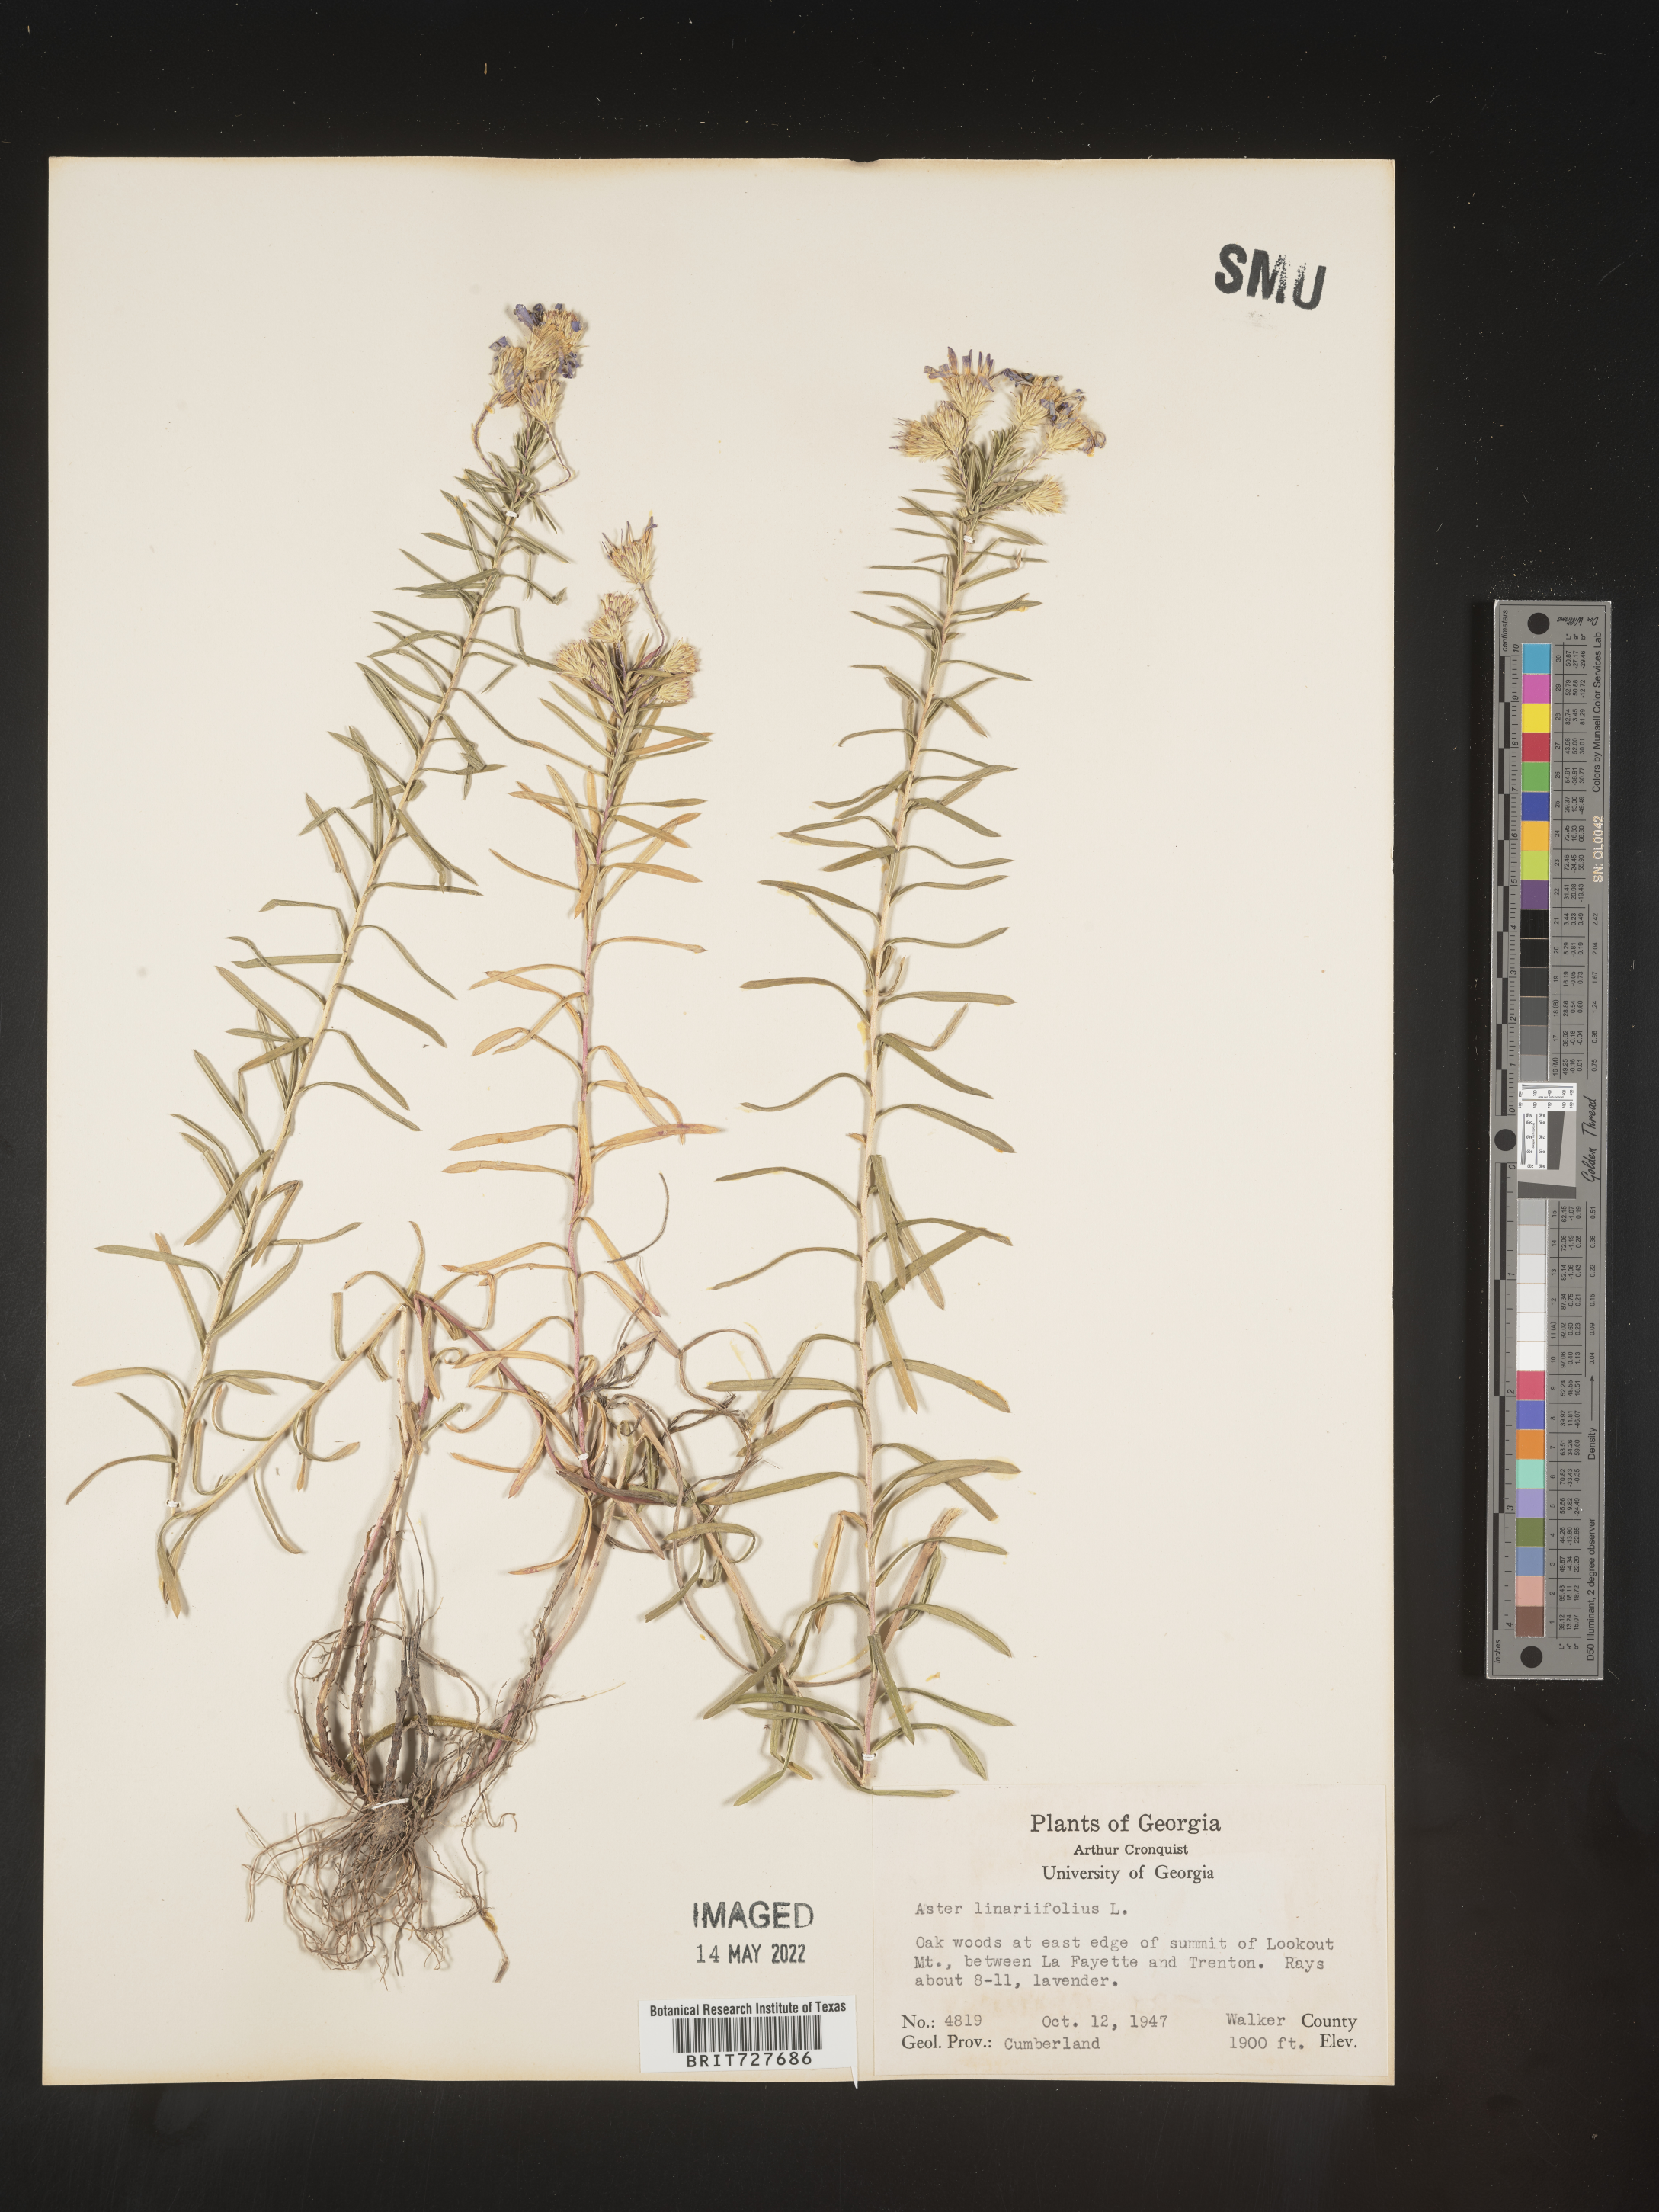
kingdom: Plantae
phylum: Tracheophyta
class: Magnoliopsida
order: Asterales
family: Asteraceae
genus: Ionactis
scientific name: Ionactis linariifolia
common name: Flax-leaf aster
